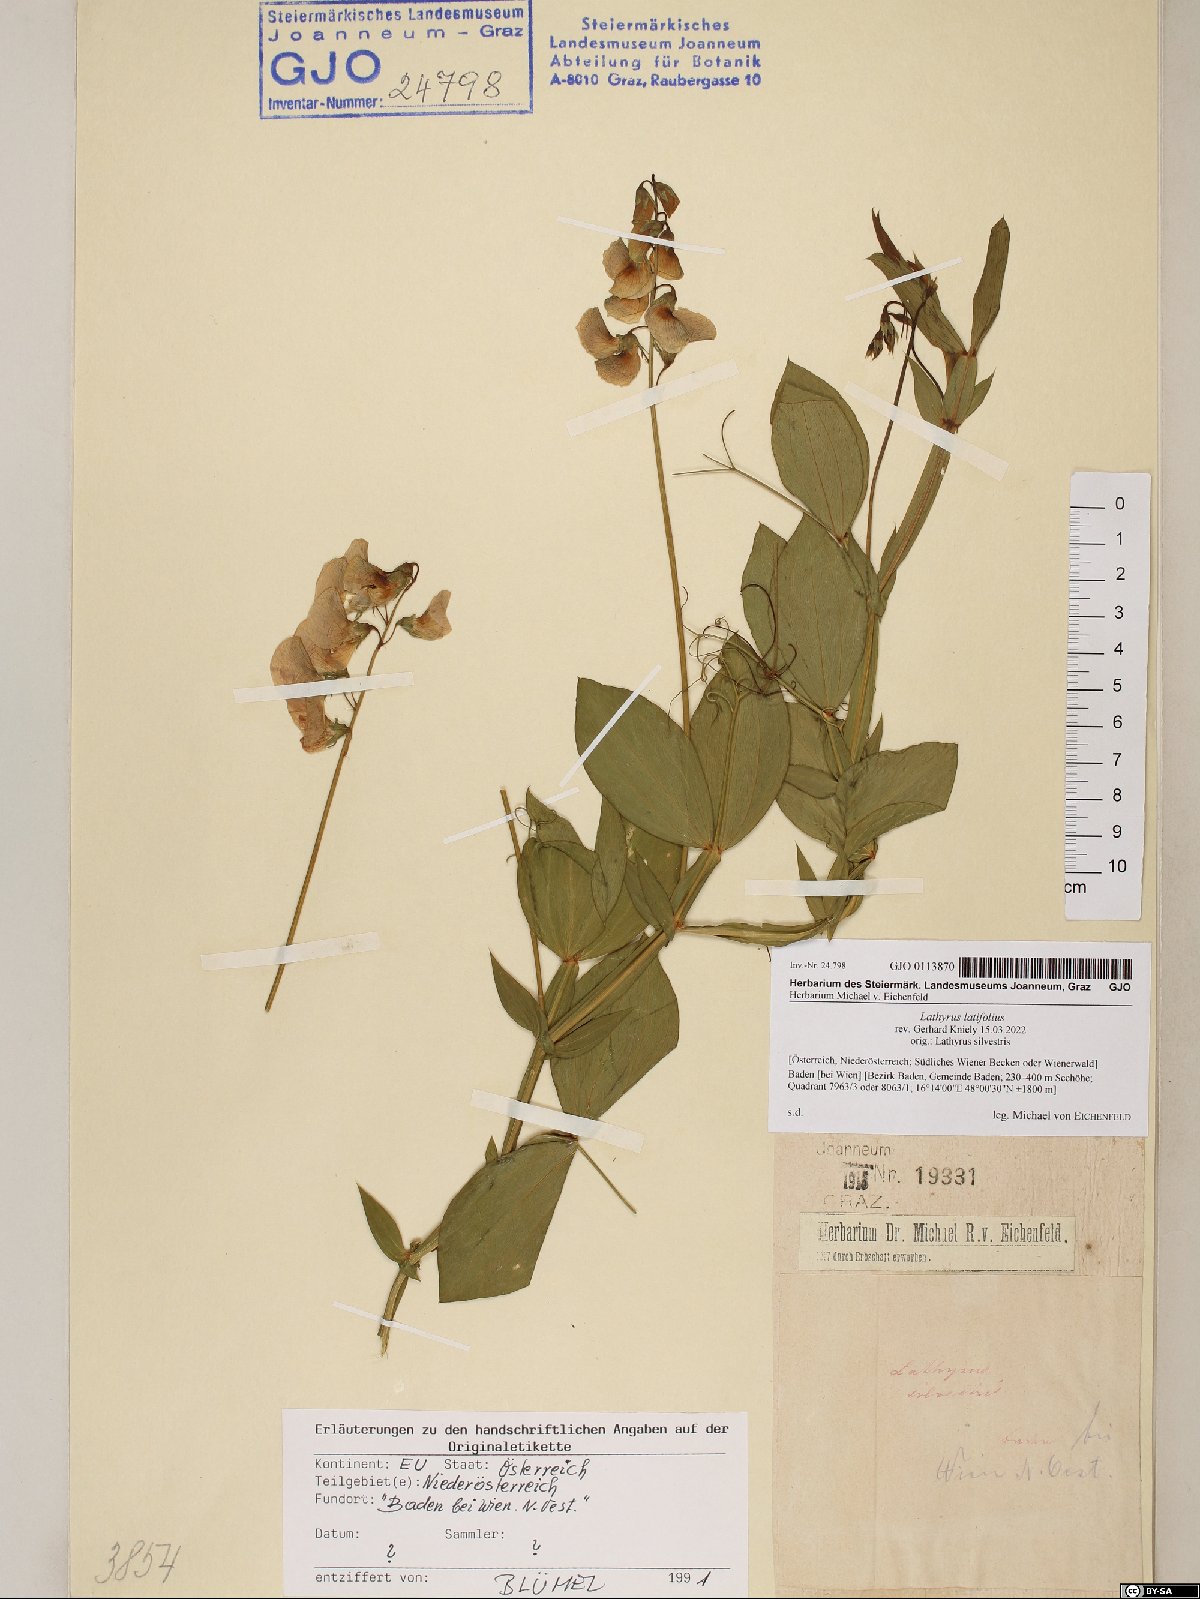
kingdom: Plantae
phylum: Tracheophyta
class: Magnoliopsida
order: Fabales
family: Fabaceae
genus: Lathyrus
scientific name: Lathyrus latifolius
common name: Perennial pea
